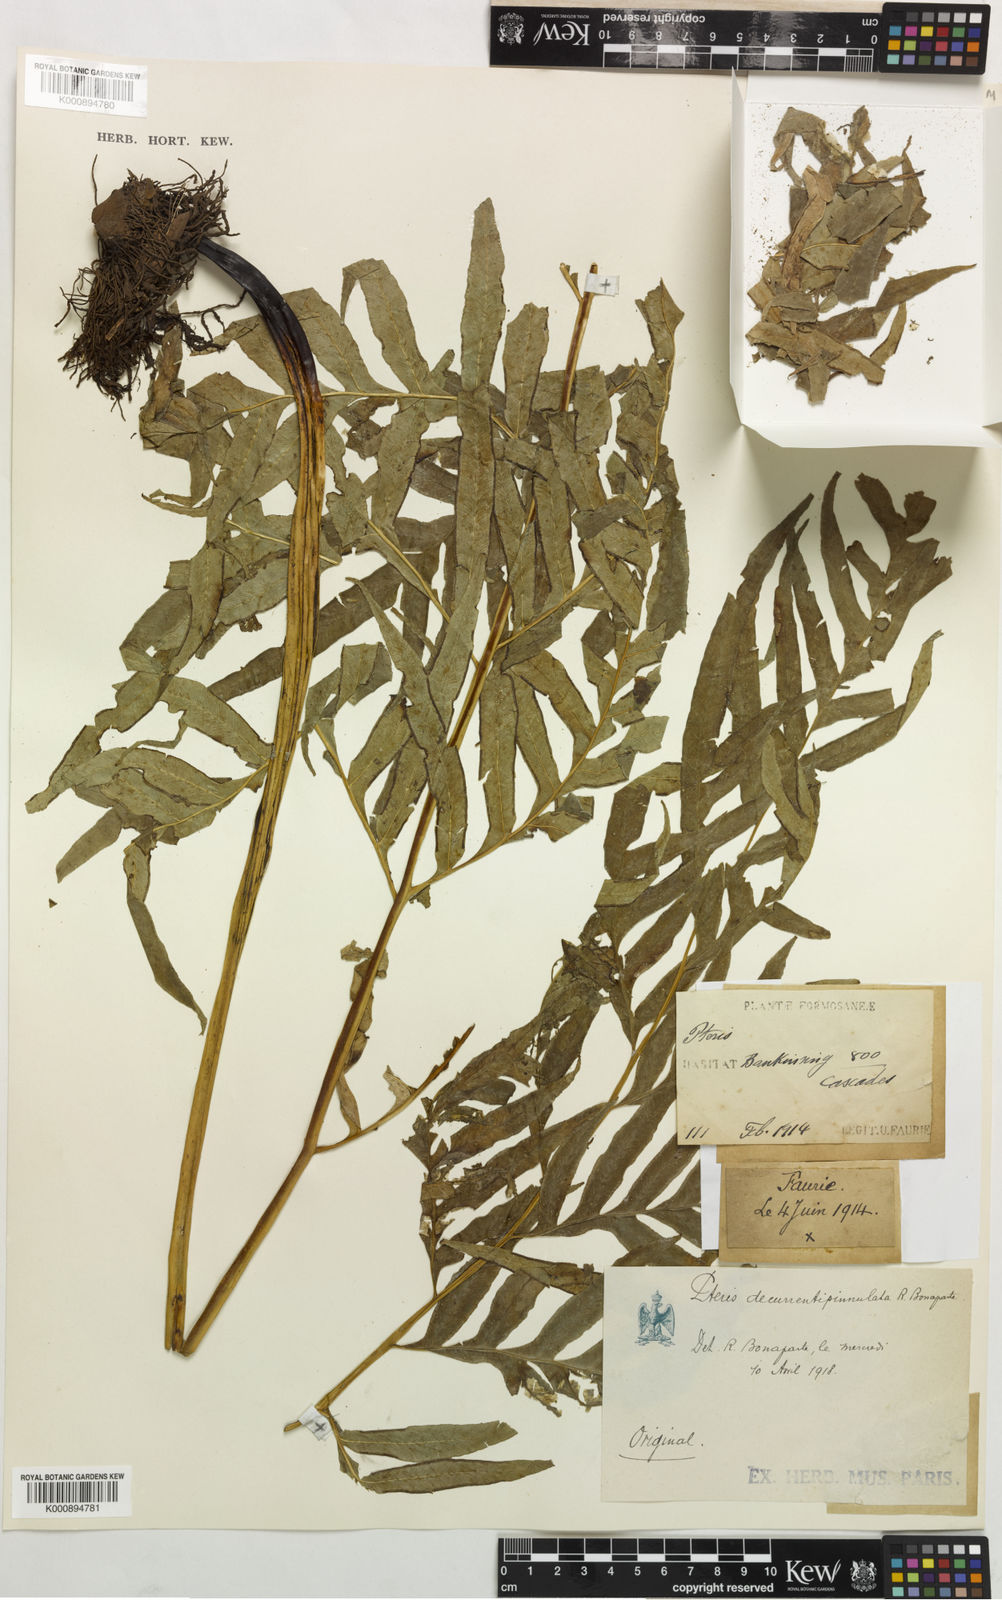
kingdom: Plantae
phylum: Tracheophyta
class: Polypodiopsida
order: Polypodiales
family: Pteridaceae
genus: Pteris
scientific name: Pteris formosana
